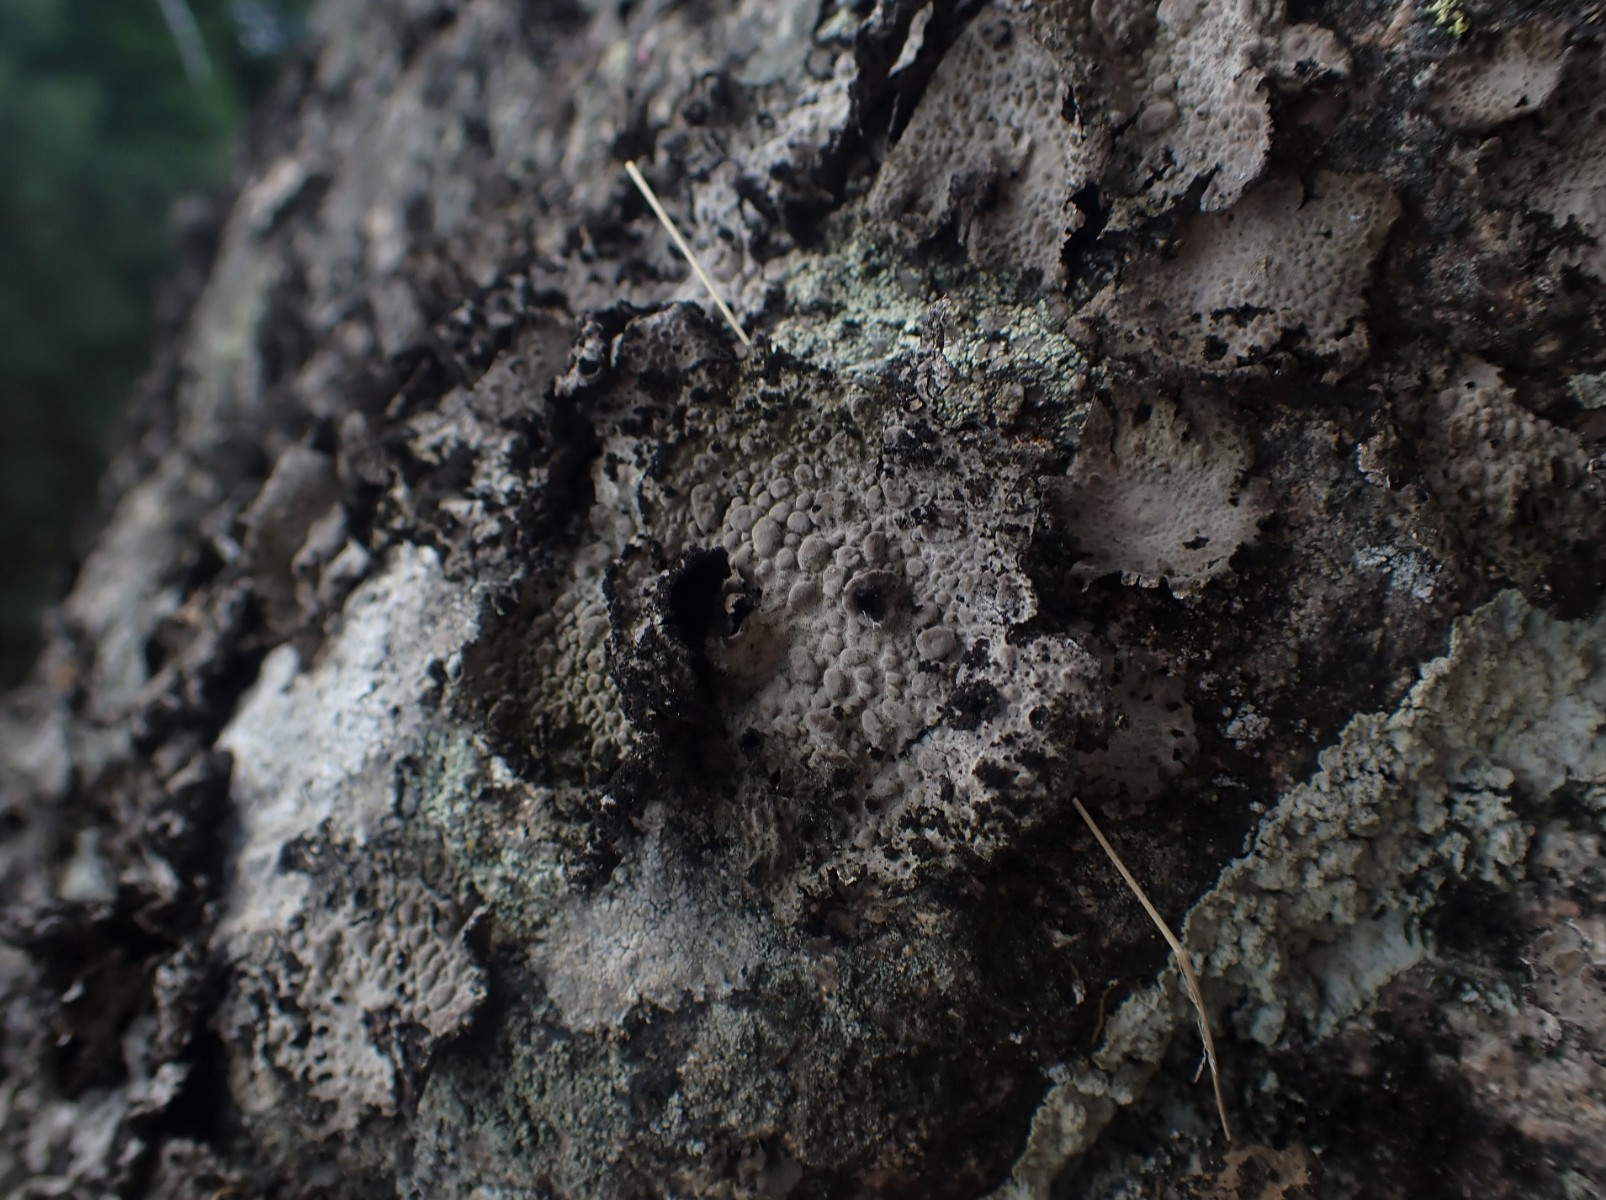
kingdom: Fungi
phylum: Ascomycota
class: Lecanoromycetes
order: Umbilicariales
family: Umbilicariaceae
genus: Lasallia
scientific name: Lasallia pustulata
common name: buklet navlelav
